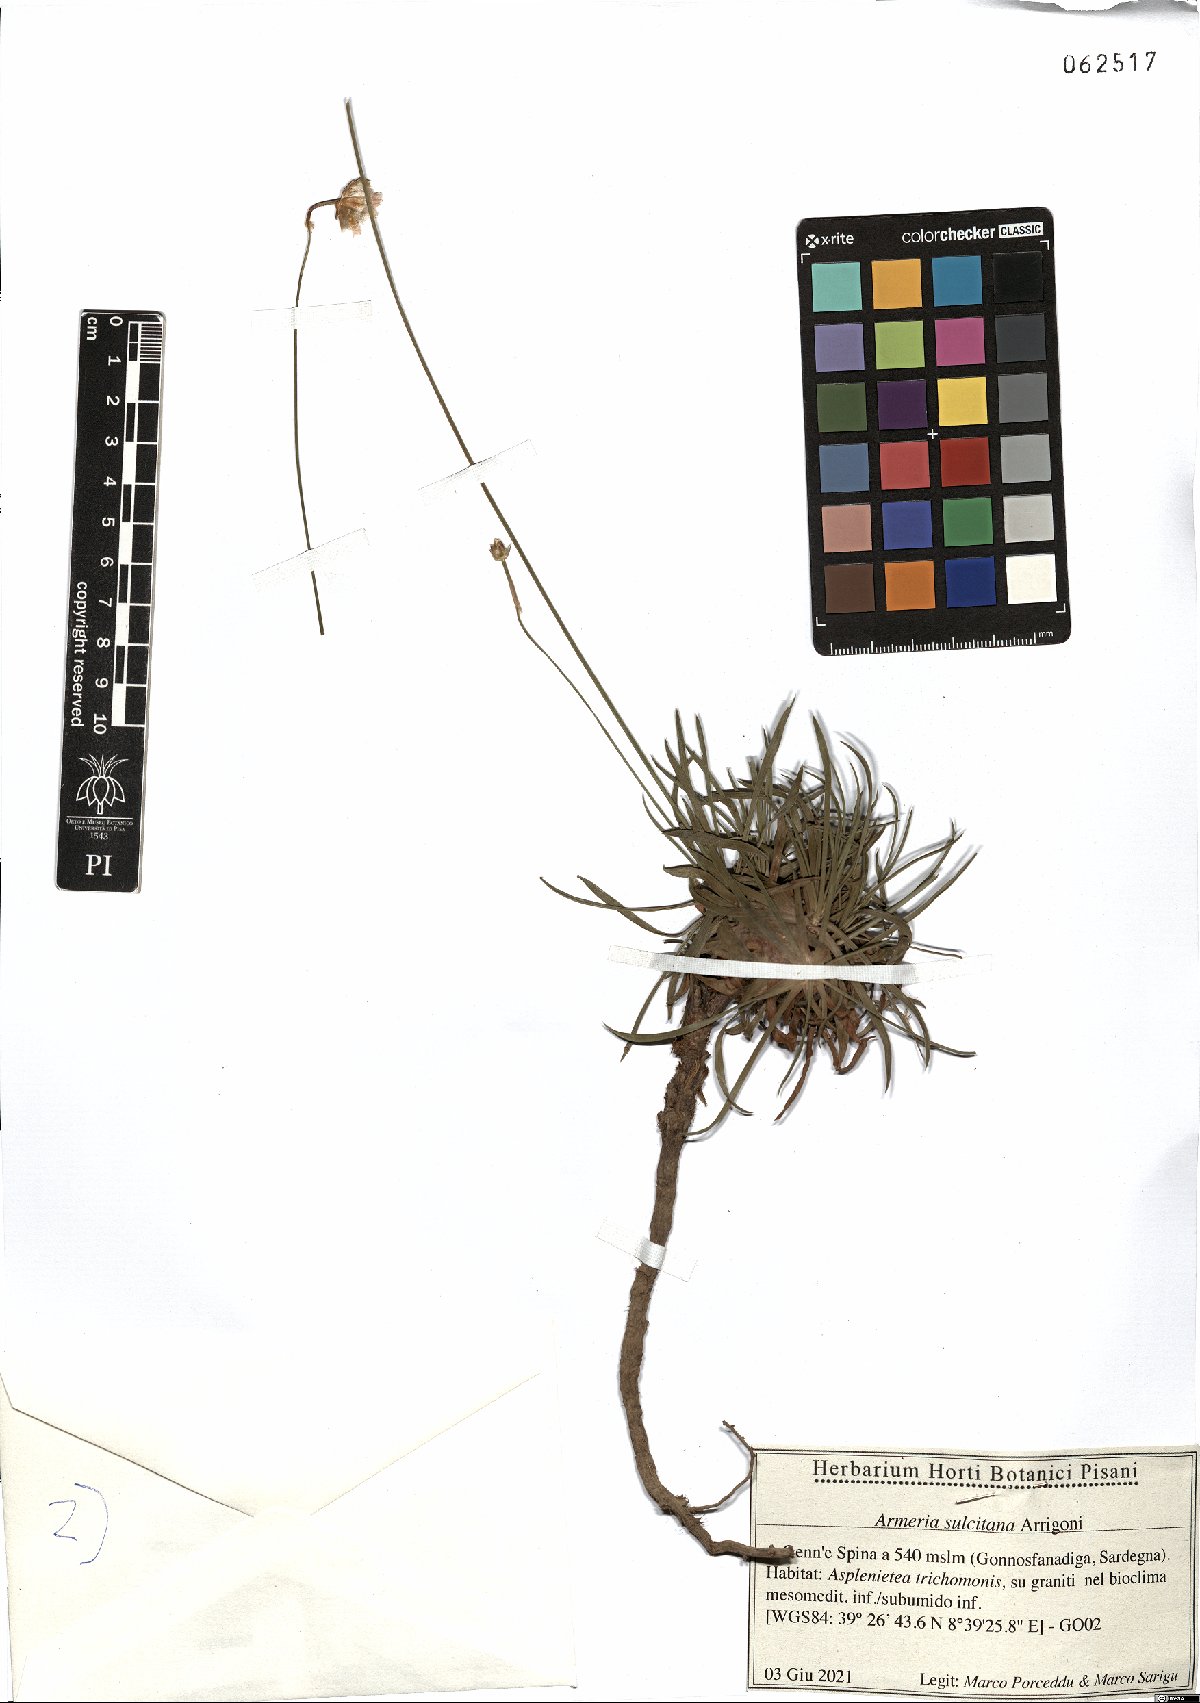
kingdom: Plantae
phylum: Tracheophyta
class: Magnoliopsida
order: Caryophyllales
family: Plumbaginaceae
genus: Armeria
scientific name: Armeria sulcitana
